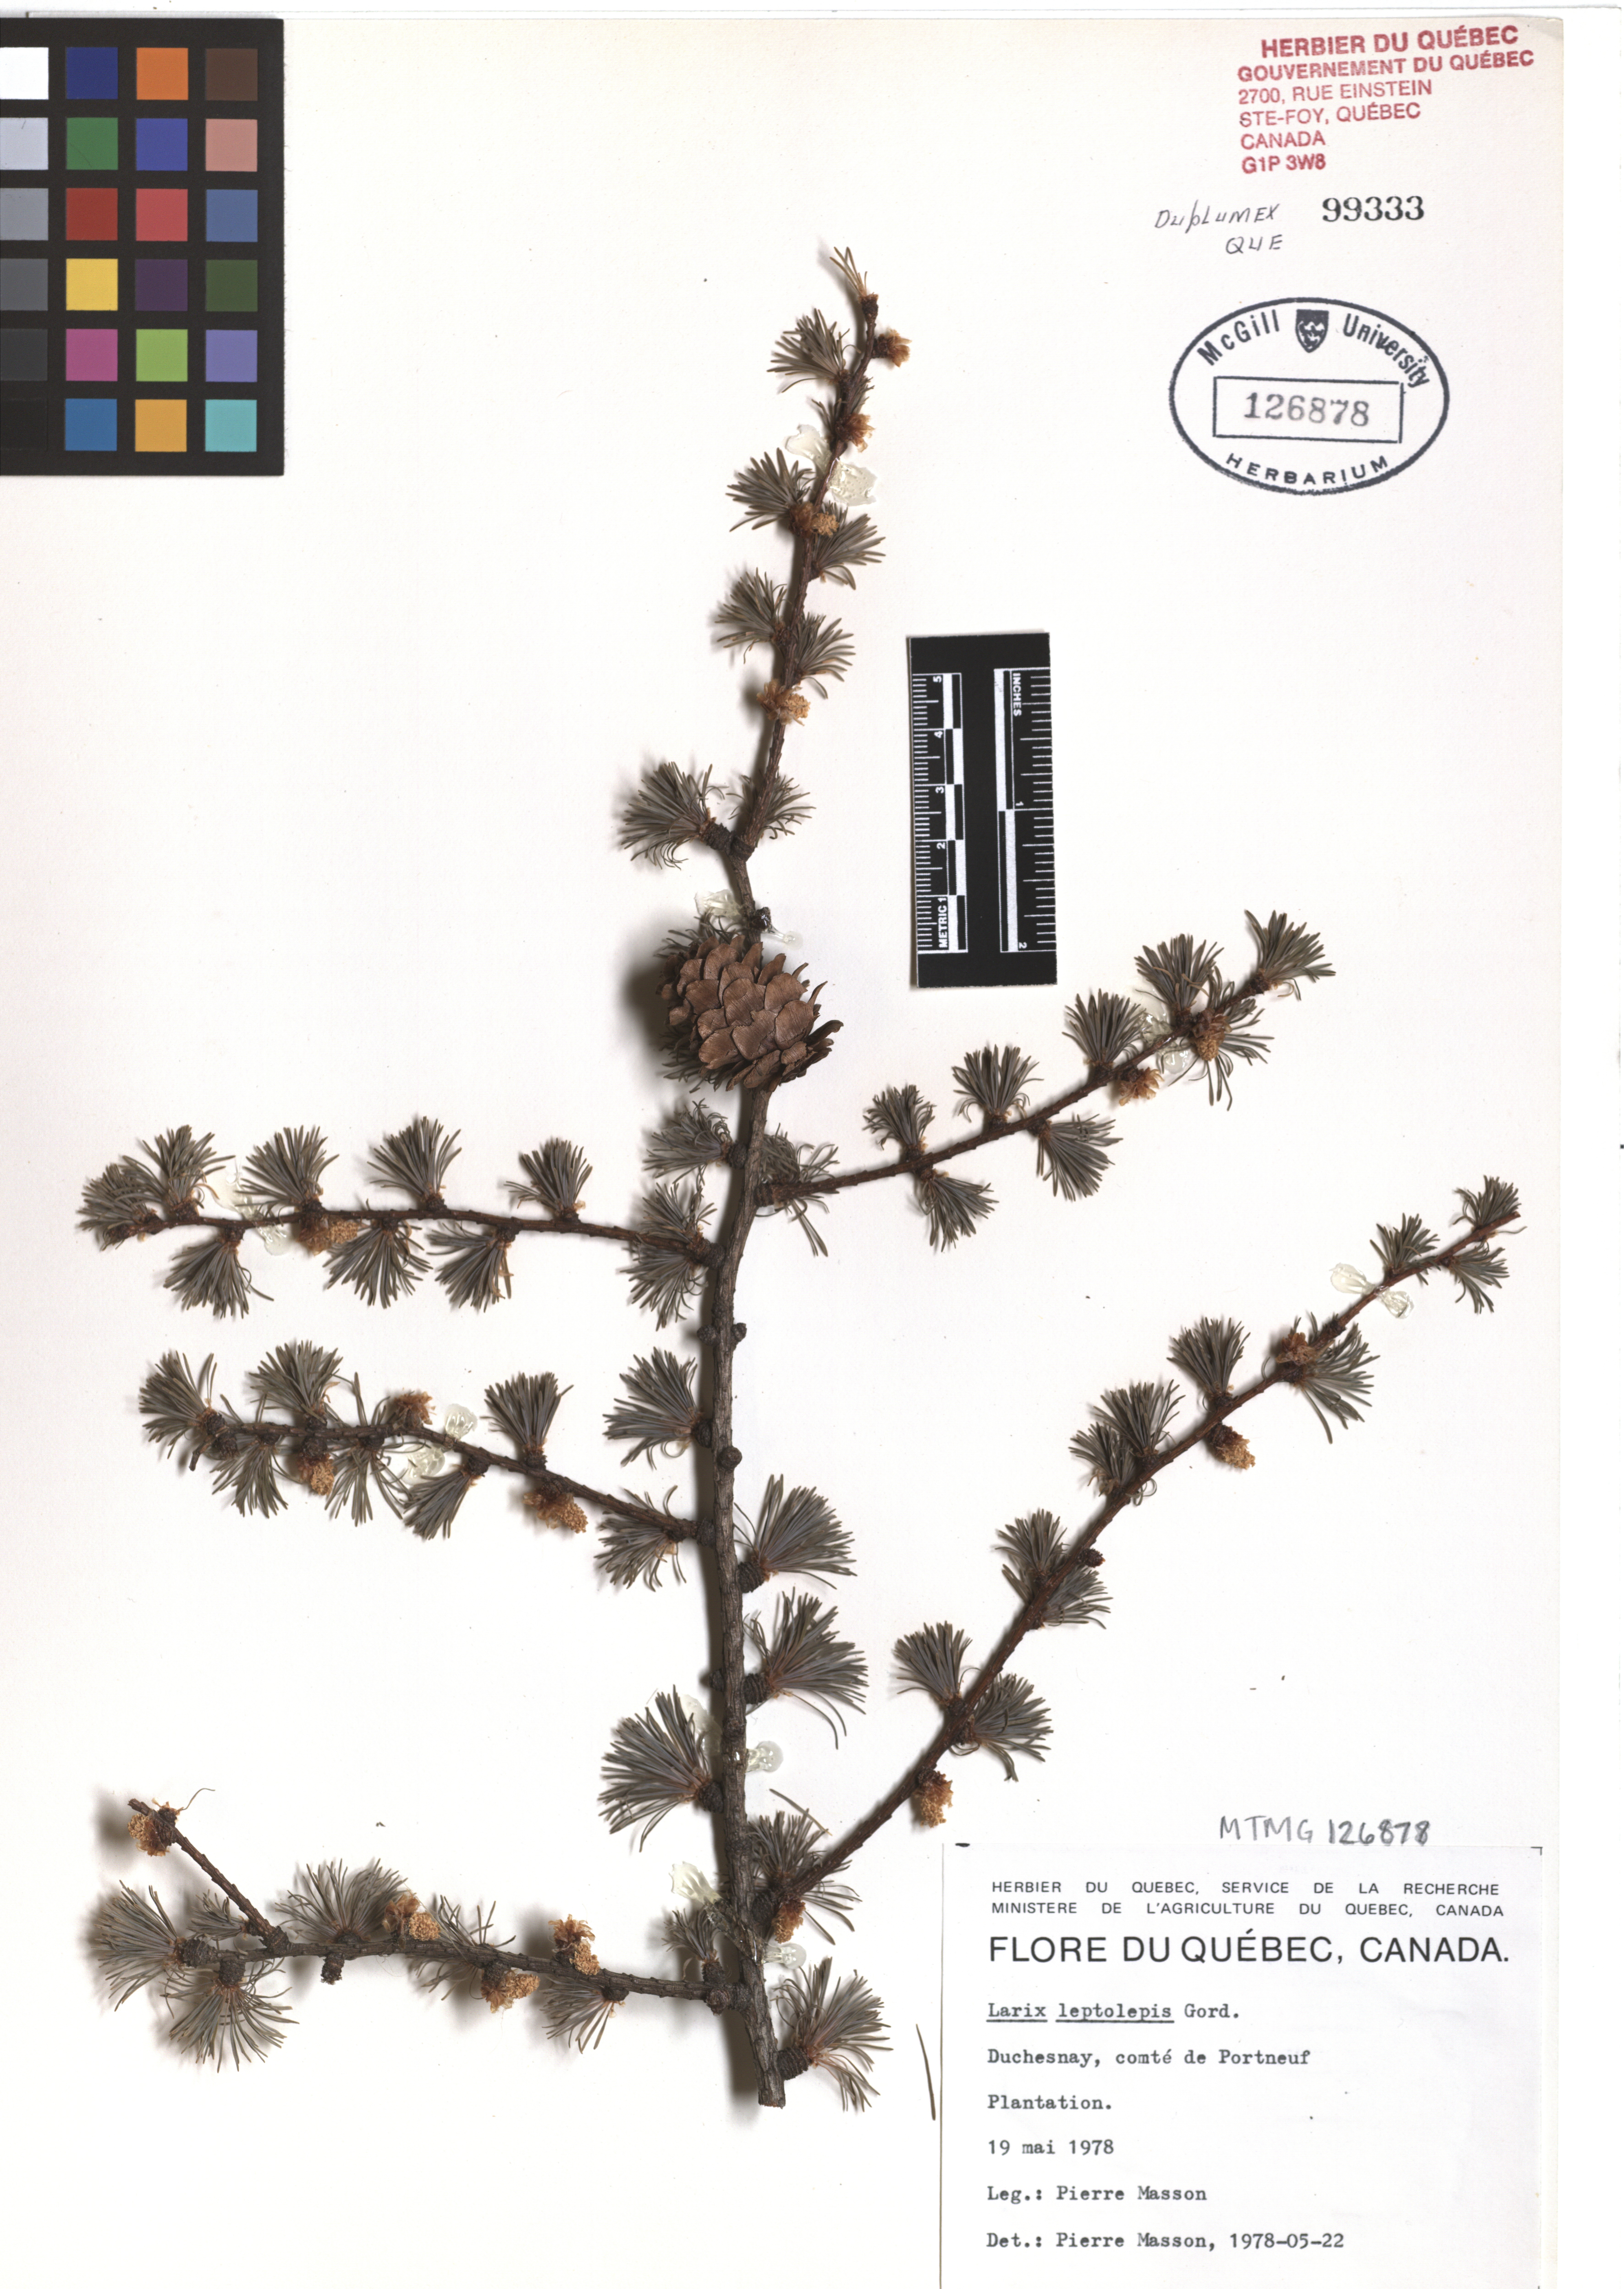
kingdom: Plantae
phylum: Tracheophyta
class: Pinopsida
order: Pinales
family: Pinaceae
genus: Larix
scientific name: Larix kaempferi
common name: Japanese larch
